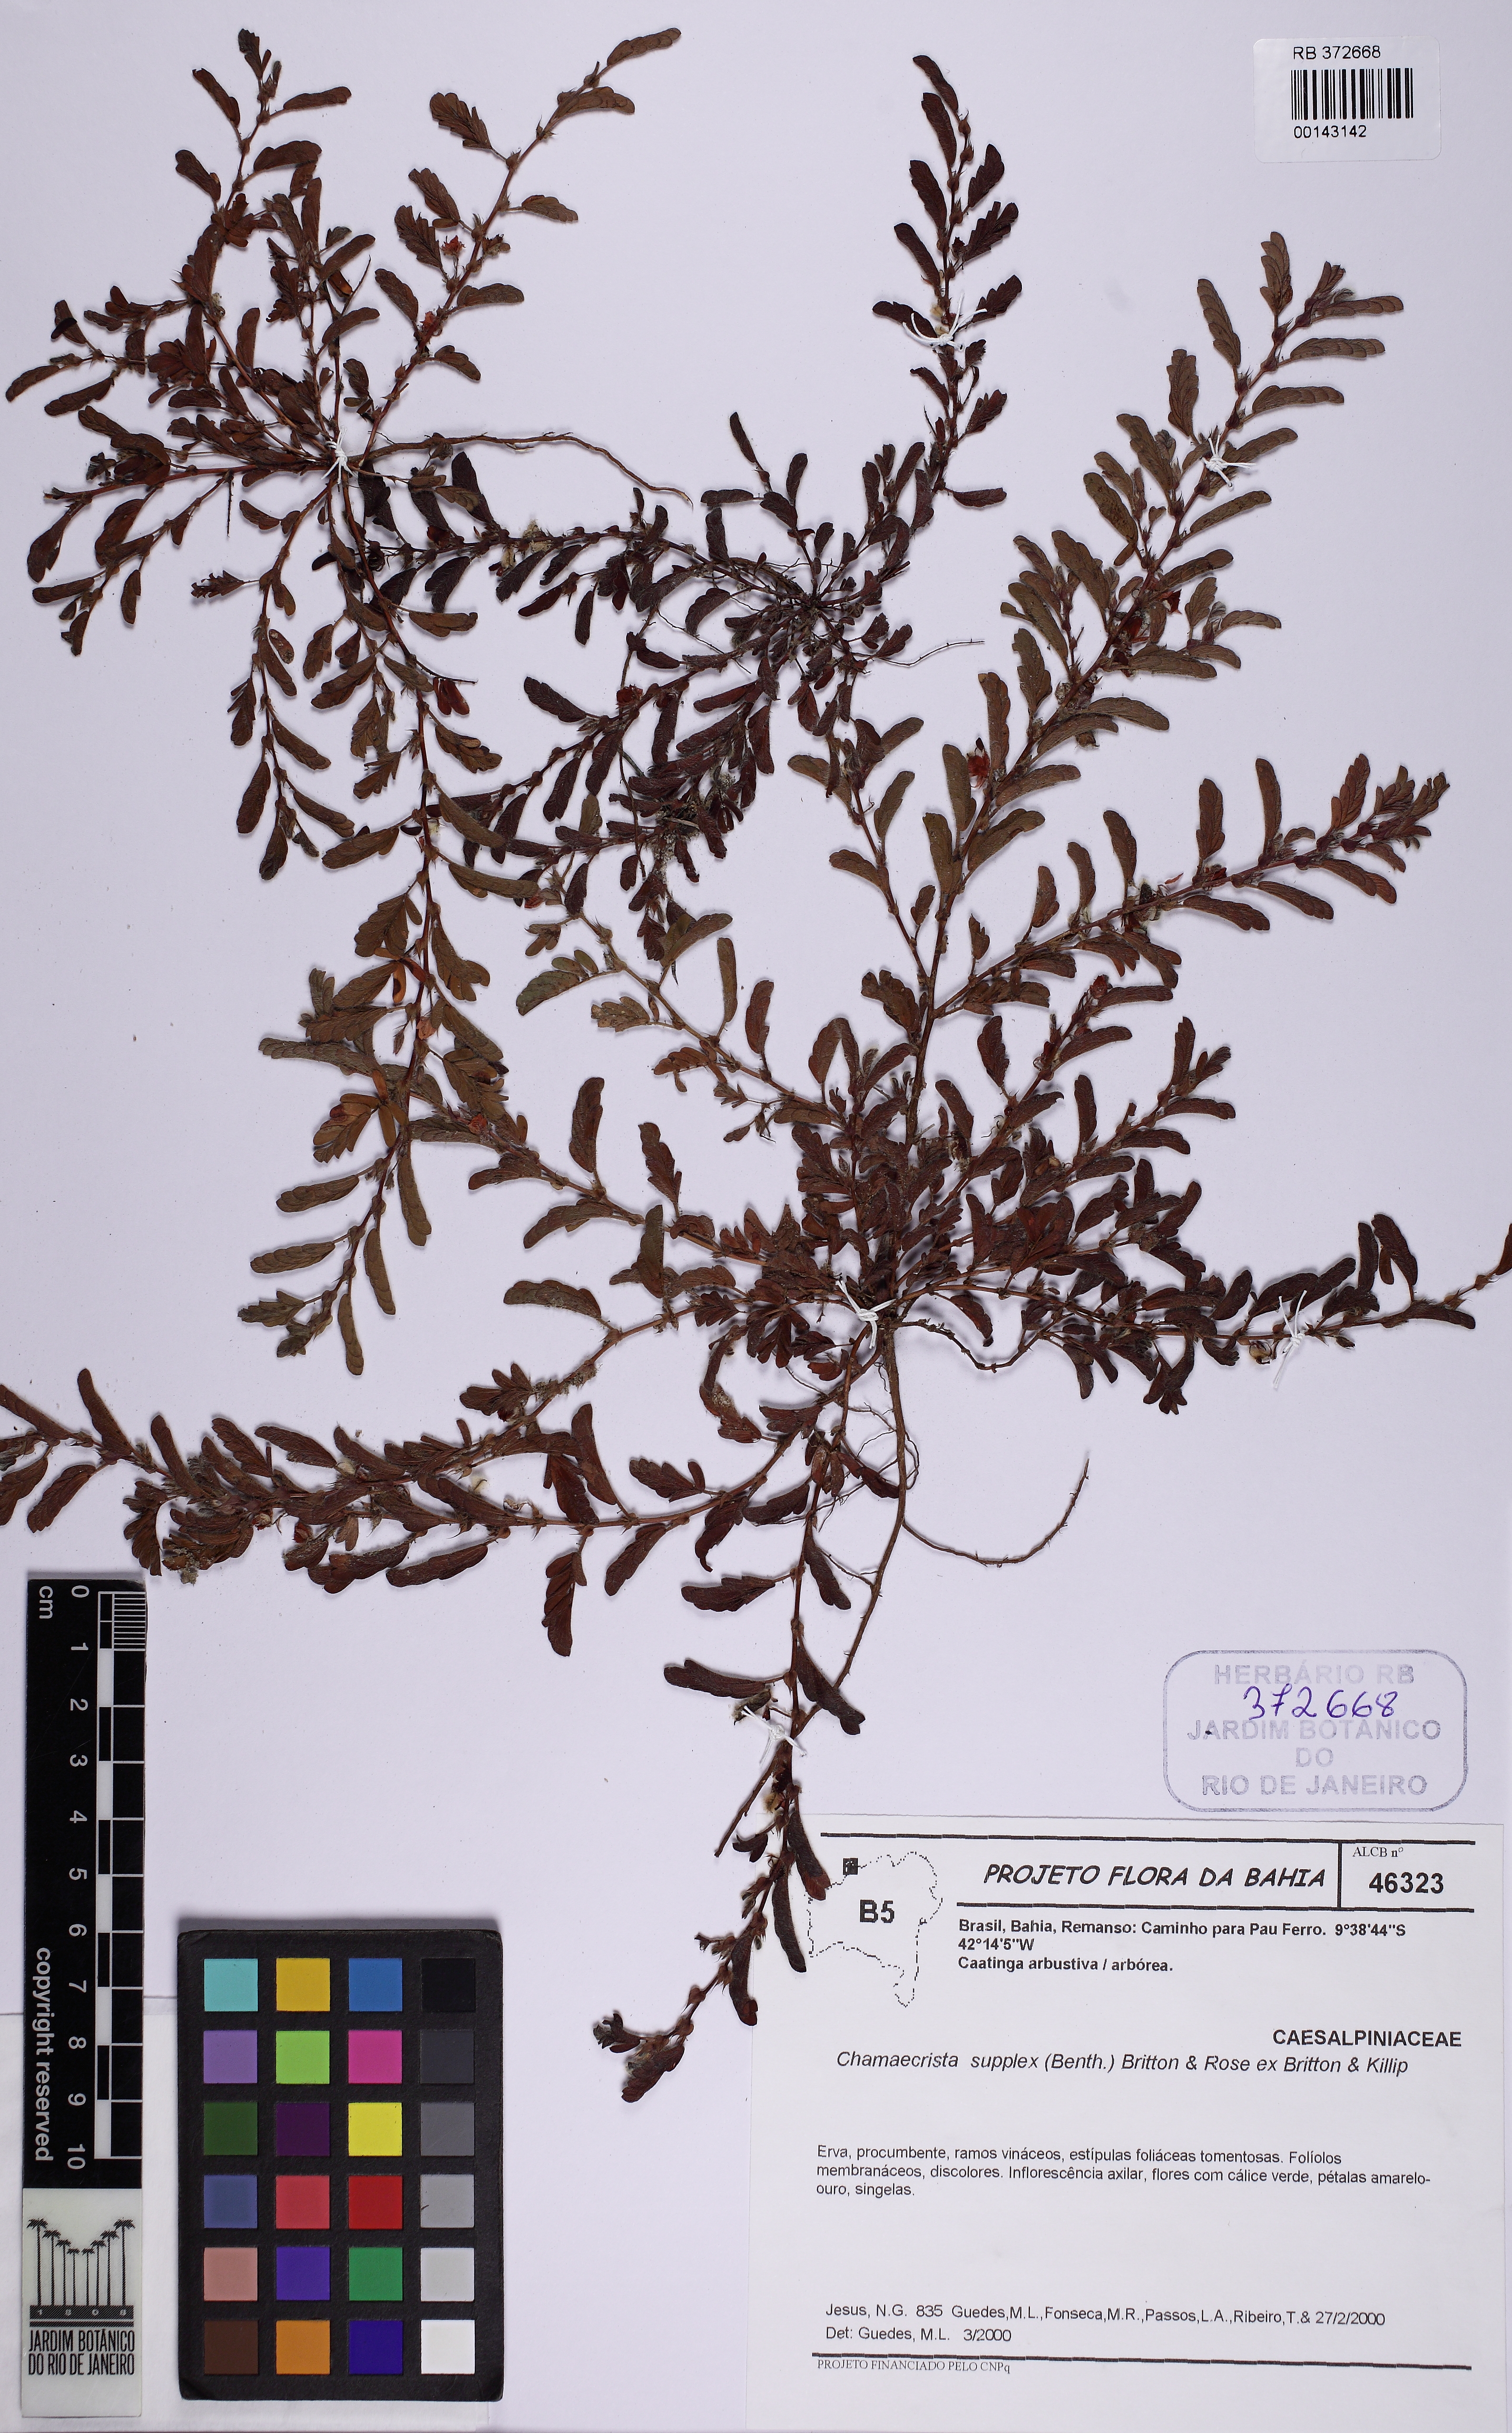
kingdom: Plantae
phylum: Tracheophyta
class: Magnoliopsida
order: Fabales
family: Fabaceae
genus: Chamaecrista
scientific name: Chamaecrista supplex
